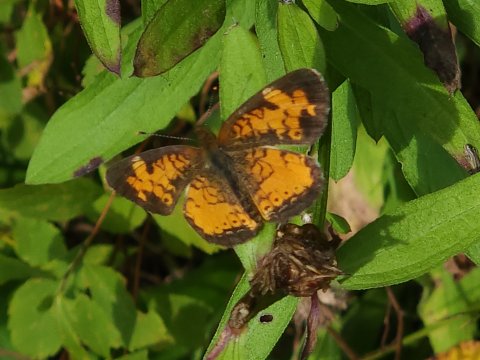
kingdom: Animalia
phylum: Arthropoda
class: Insecta
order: Lepidoptera
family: Nymphalidae
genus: Phyciodes
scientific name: Phyciodes
